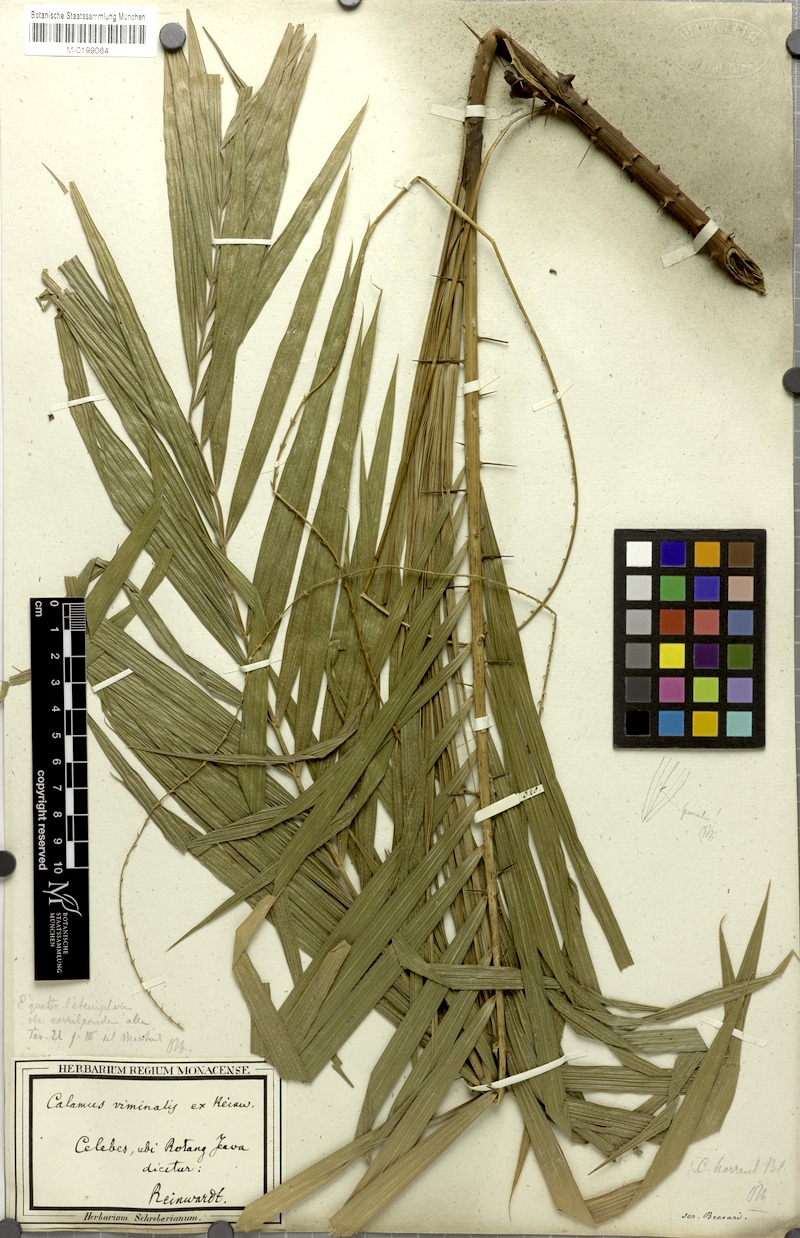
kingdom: Plantae
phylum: Tracheophyta
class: Liliopsida
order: Arecales
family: Arecaceae
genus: Calamus
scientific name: Calamus tenuis
